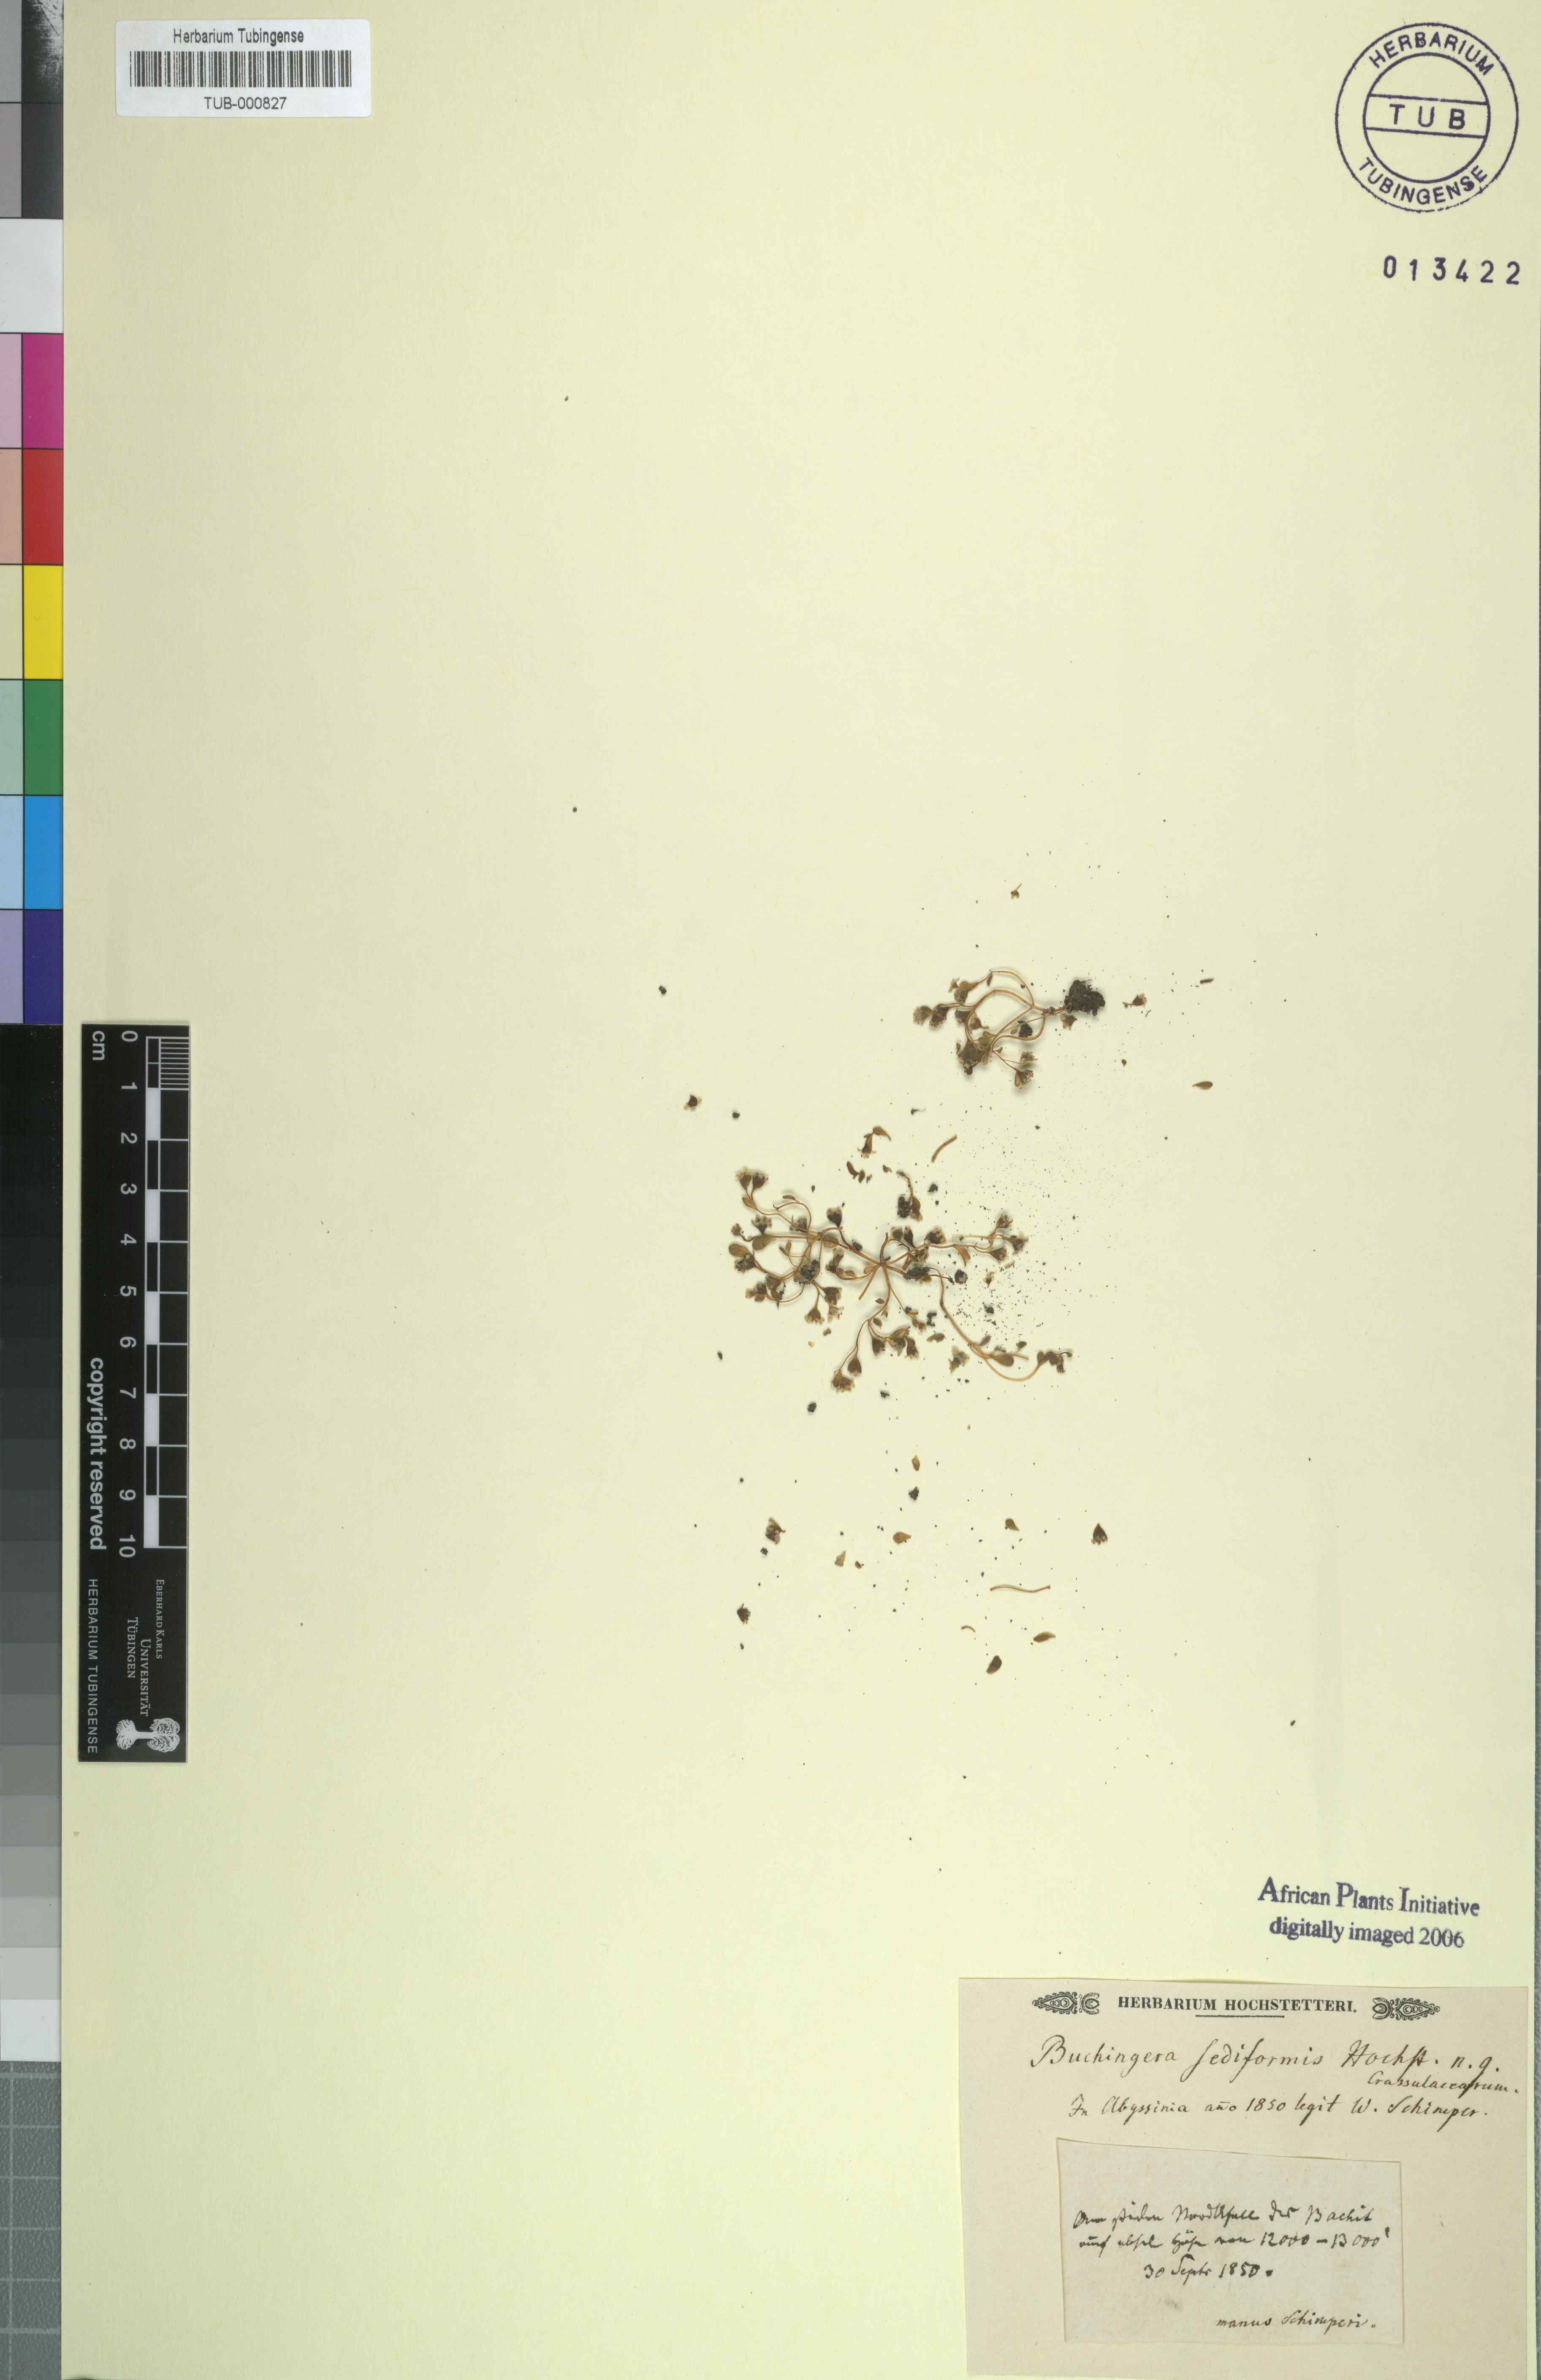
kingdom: Plantae
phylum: Tracheophyta
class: Magnoliopsida
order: Saxifragales
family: Crassulaceae
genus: Sedum
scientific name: Sedum crassularia
